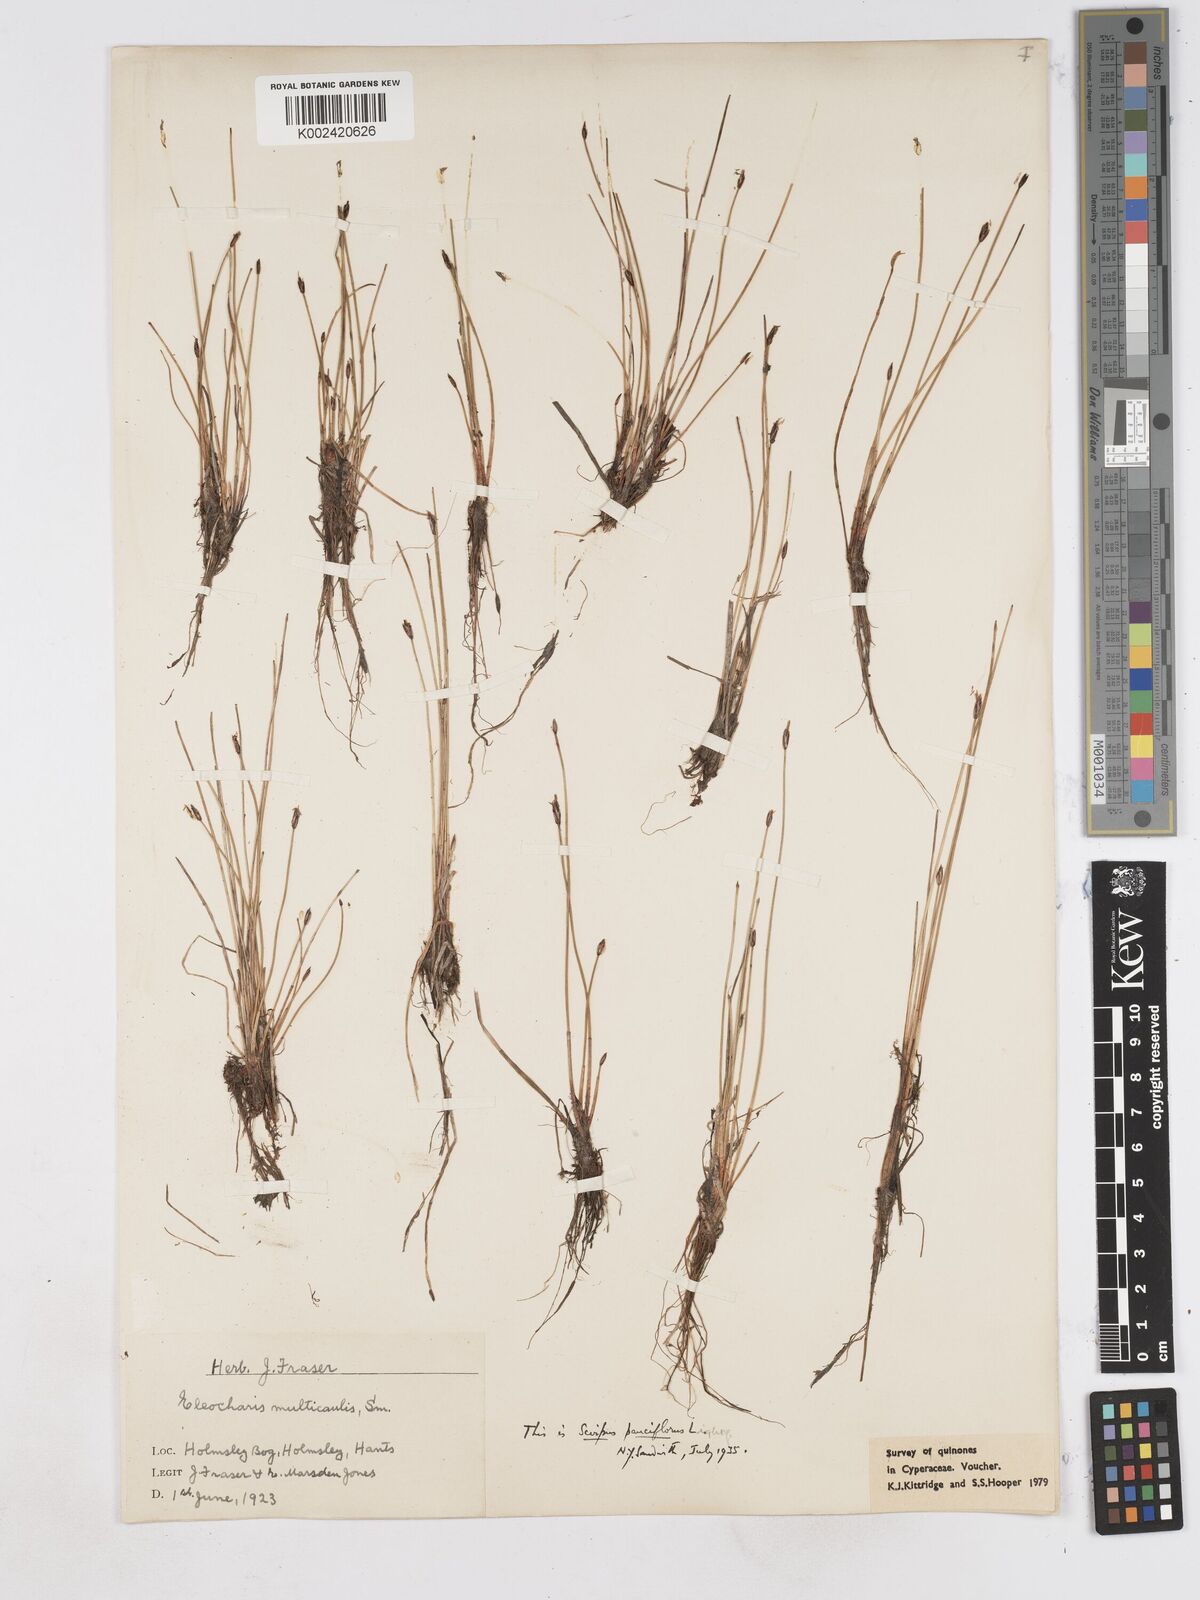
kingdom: Plantae
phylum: Tracheophyta
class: Liliopsida
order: Poales
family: Cyperaceae
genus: Eleocharis
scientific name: Eleocharis quinqueflora
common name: Few-flowered spike-rush
